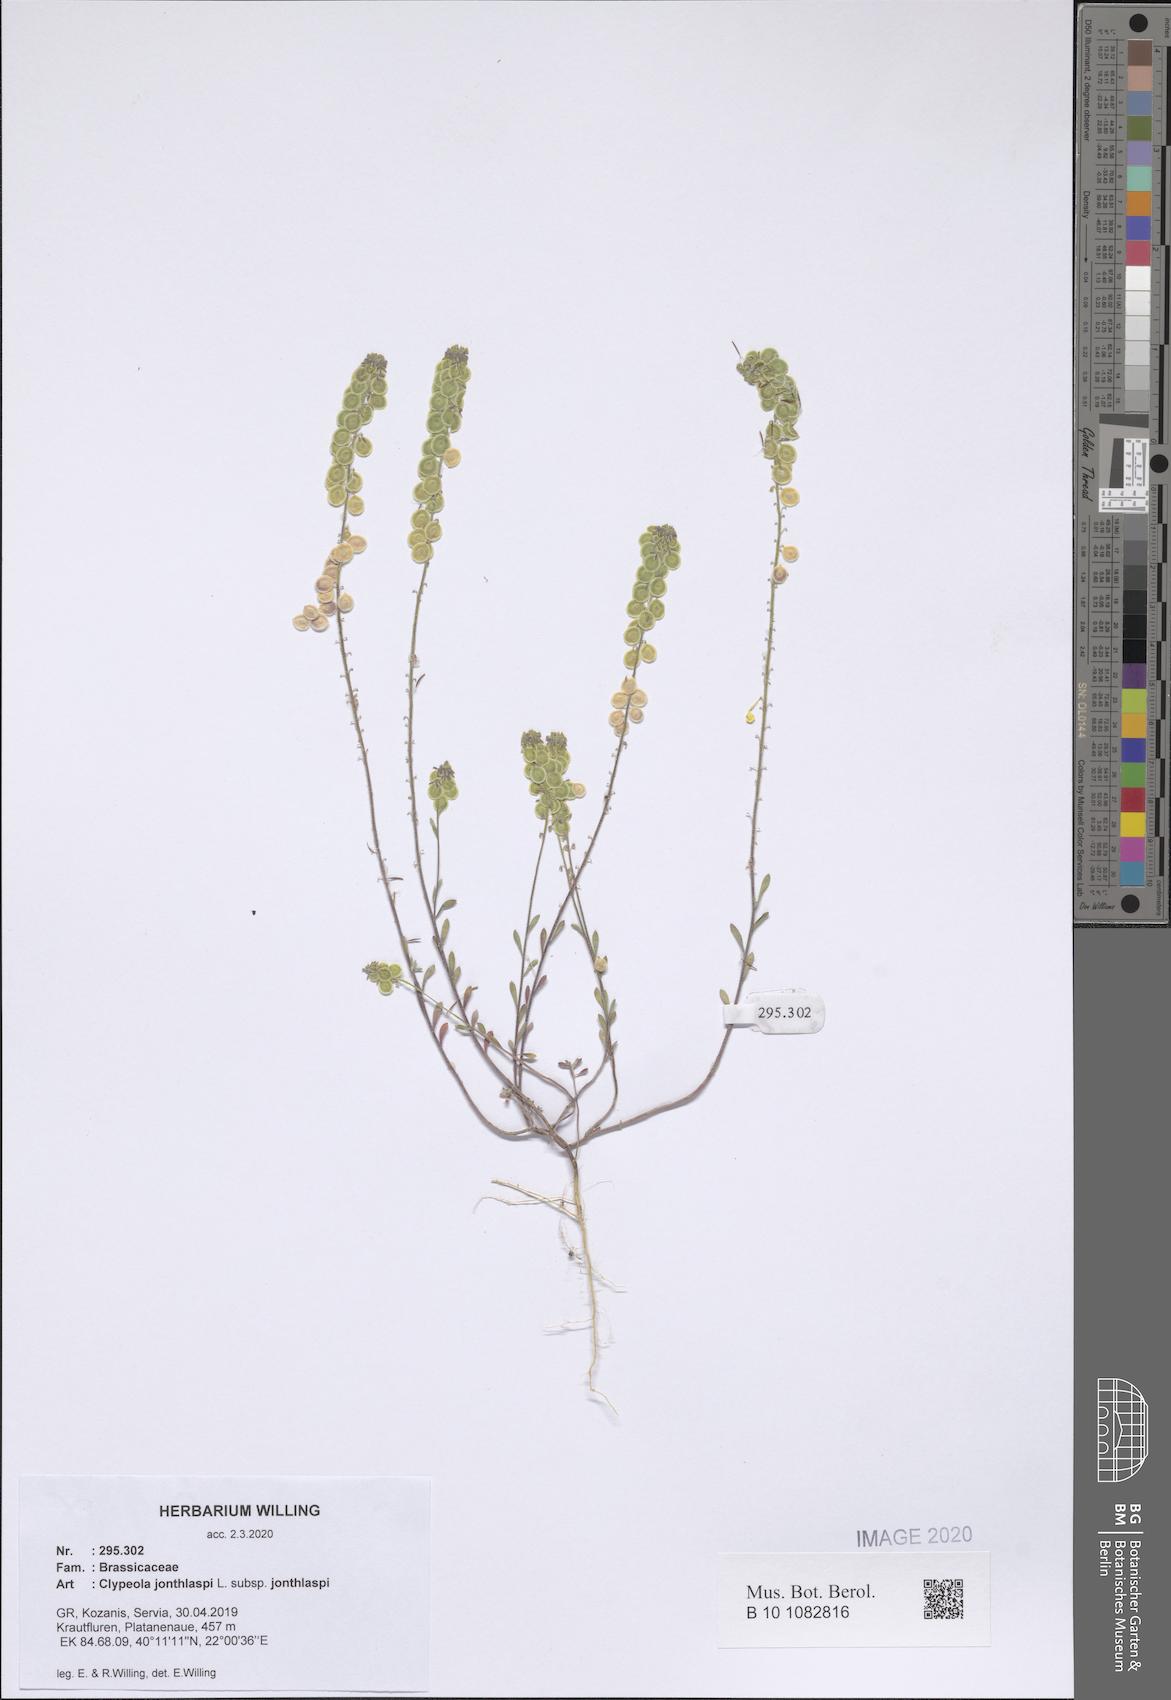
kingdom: Plantae
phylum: Tracheophyta
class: Magnoliopsida
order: Brassicales
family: Brassicaceae
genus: Clypeola
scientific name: Clypeola jonthlaspi
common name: Disk cress
